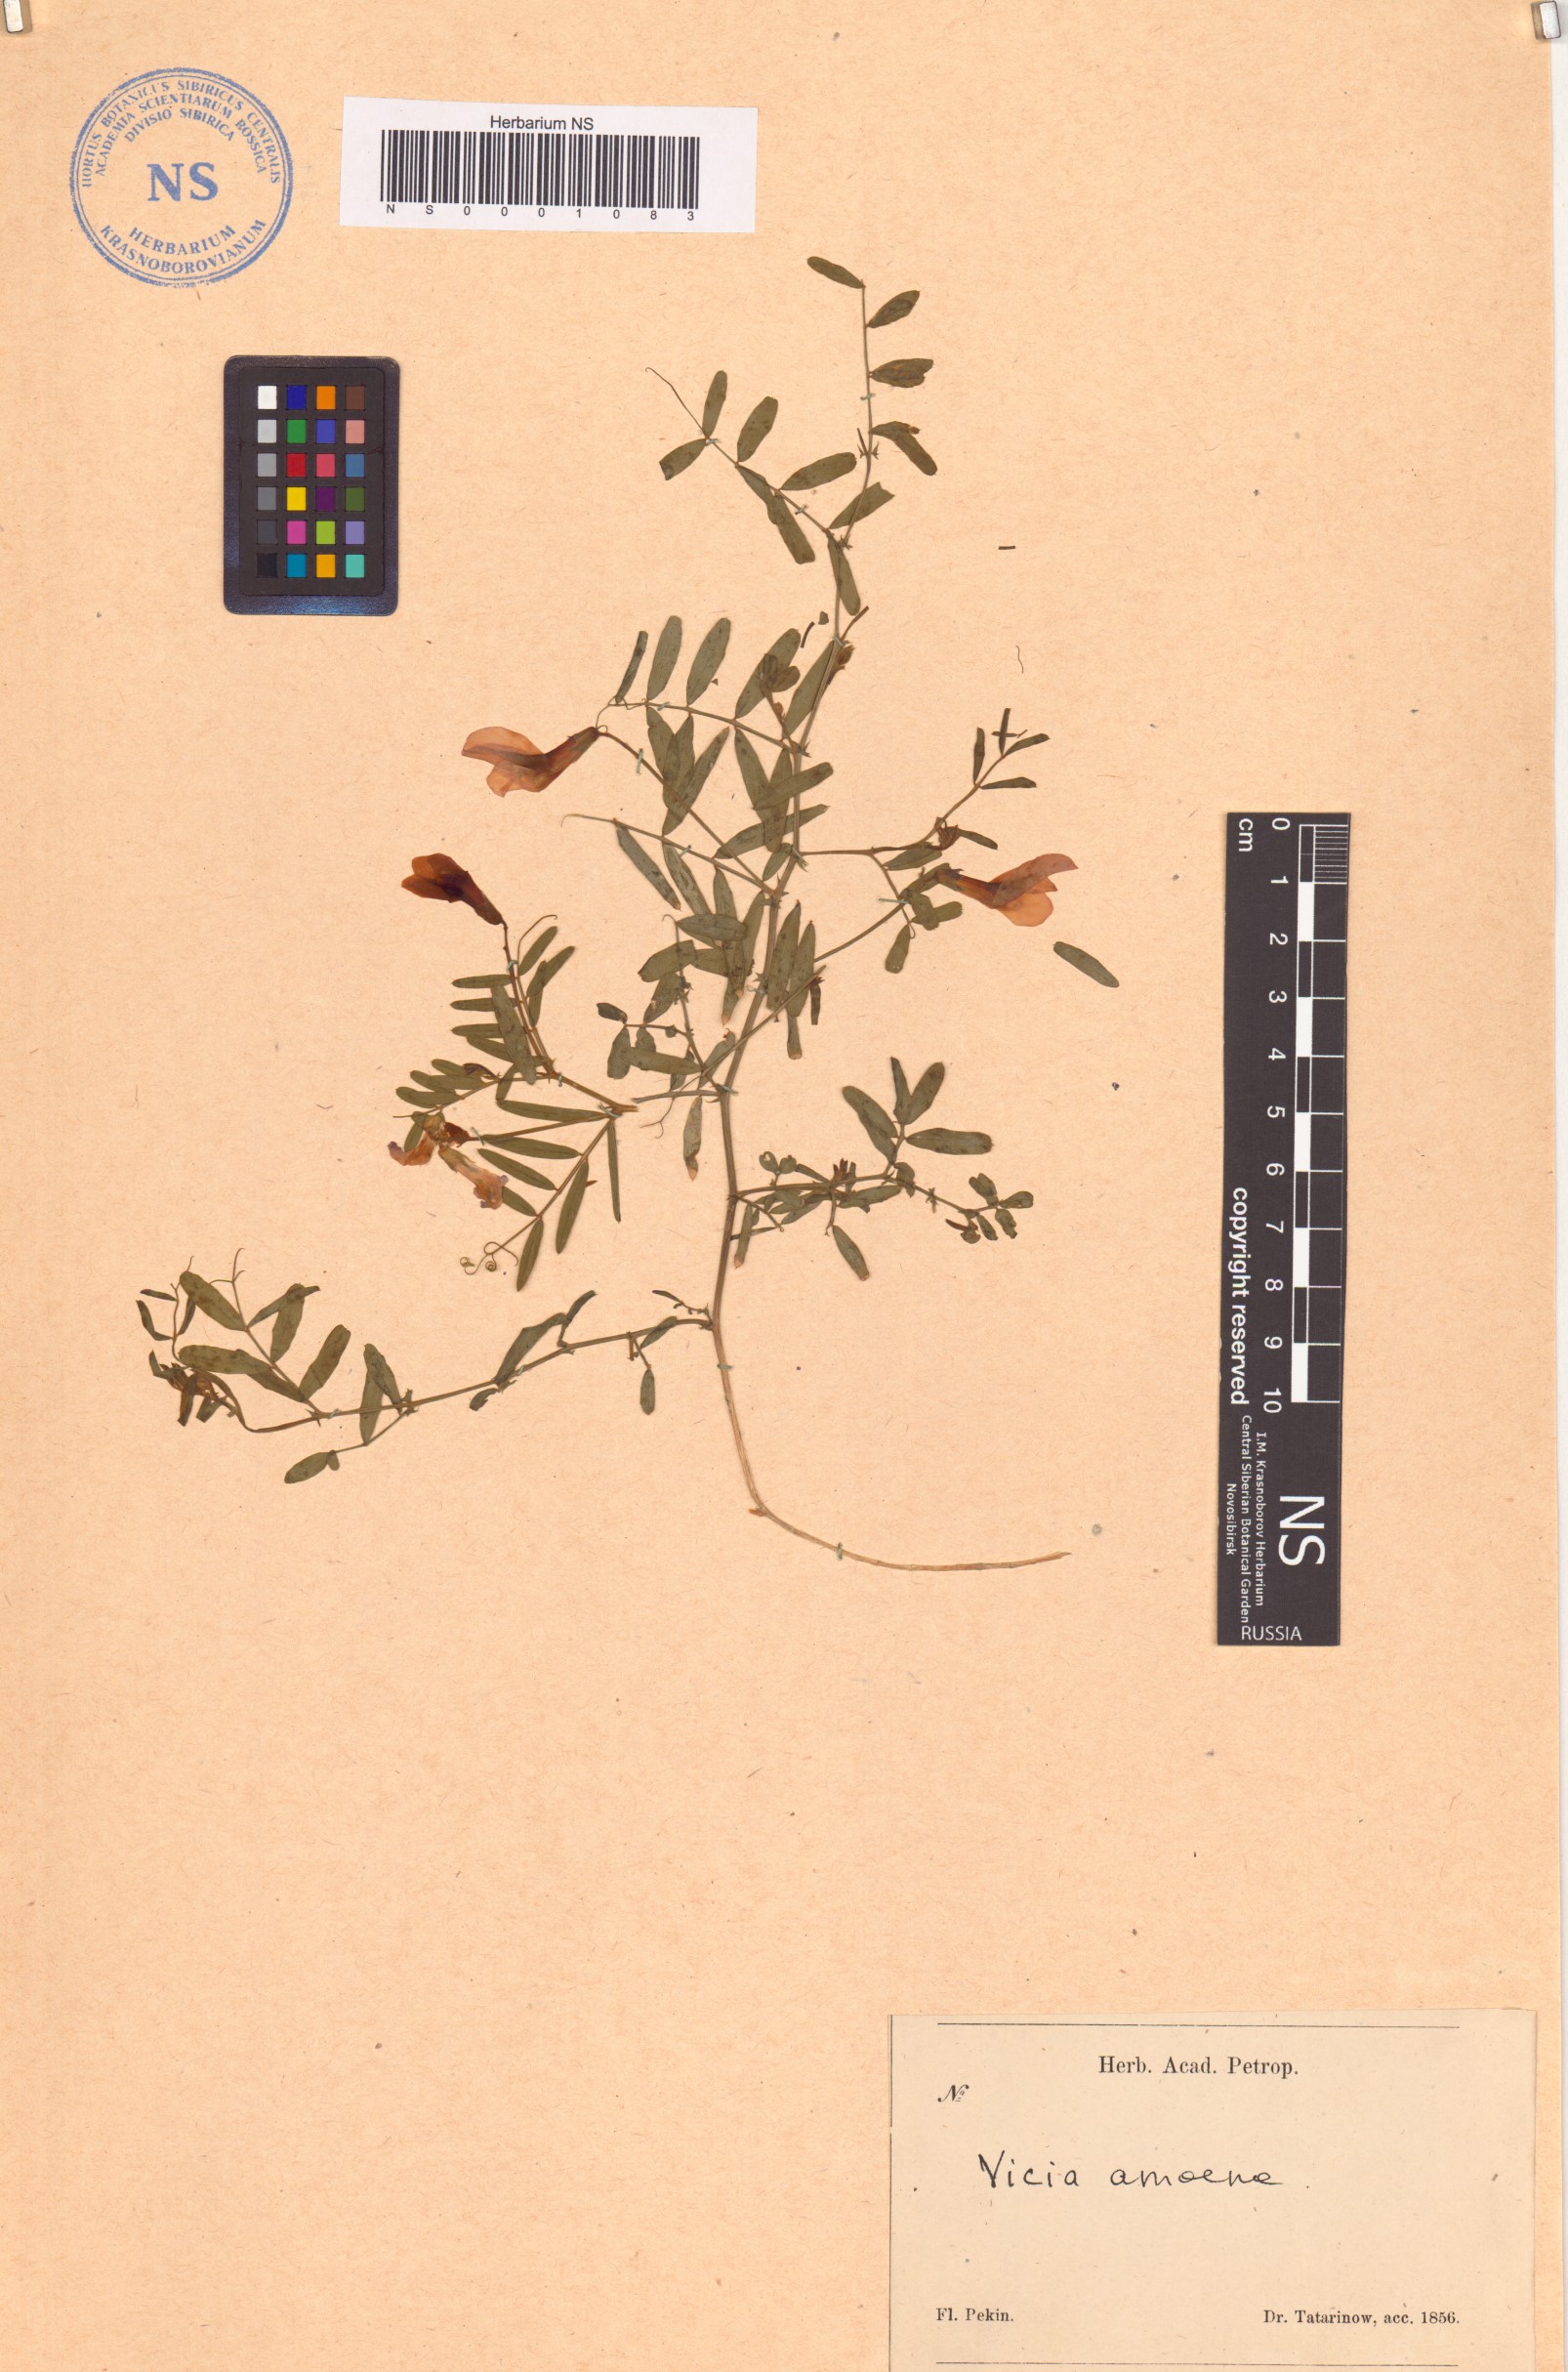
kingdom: Plantae
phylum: Tracheophyta
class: Magnoliopsida
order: Fabales
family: Fabaceae
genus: Vicia
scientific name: Vicia amoena
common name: Cheder ebs
